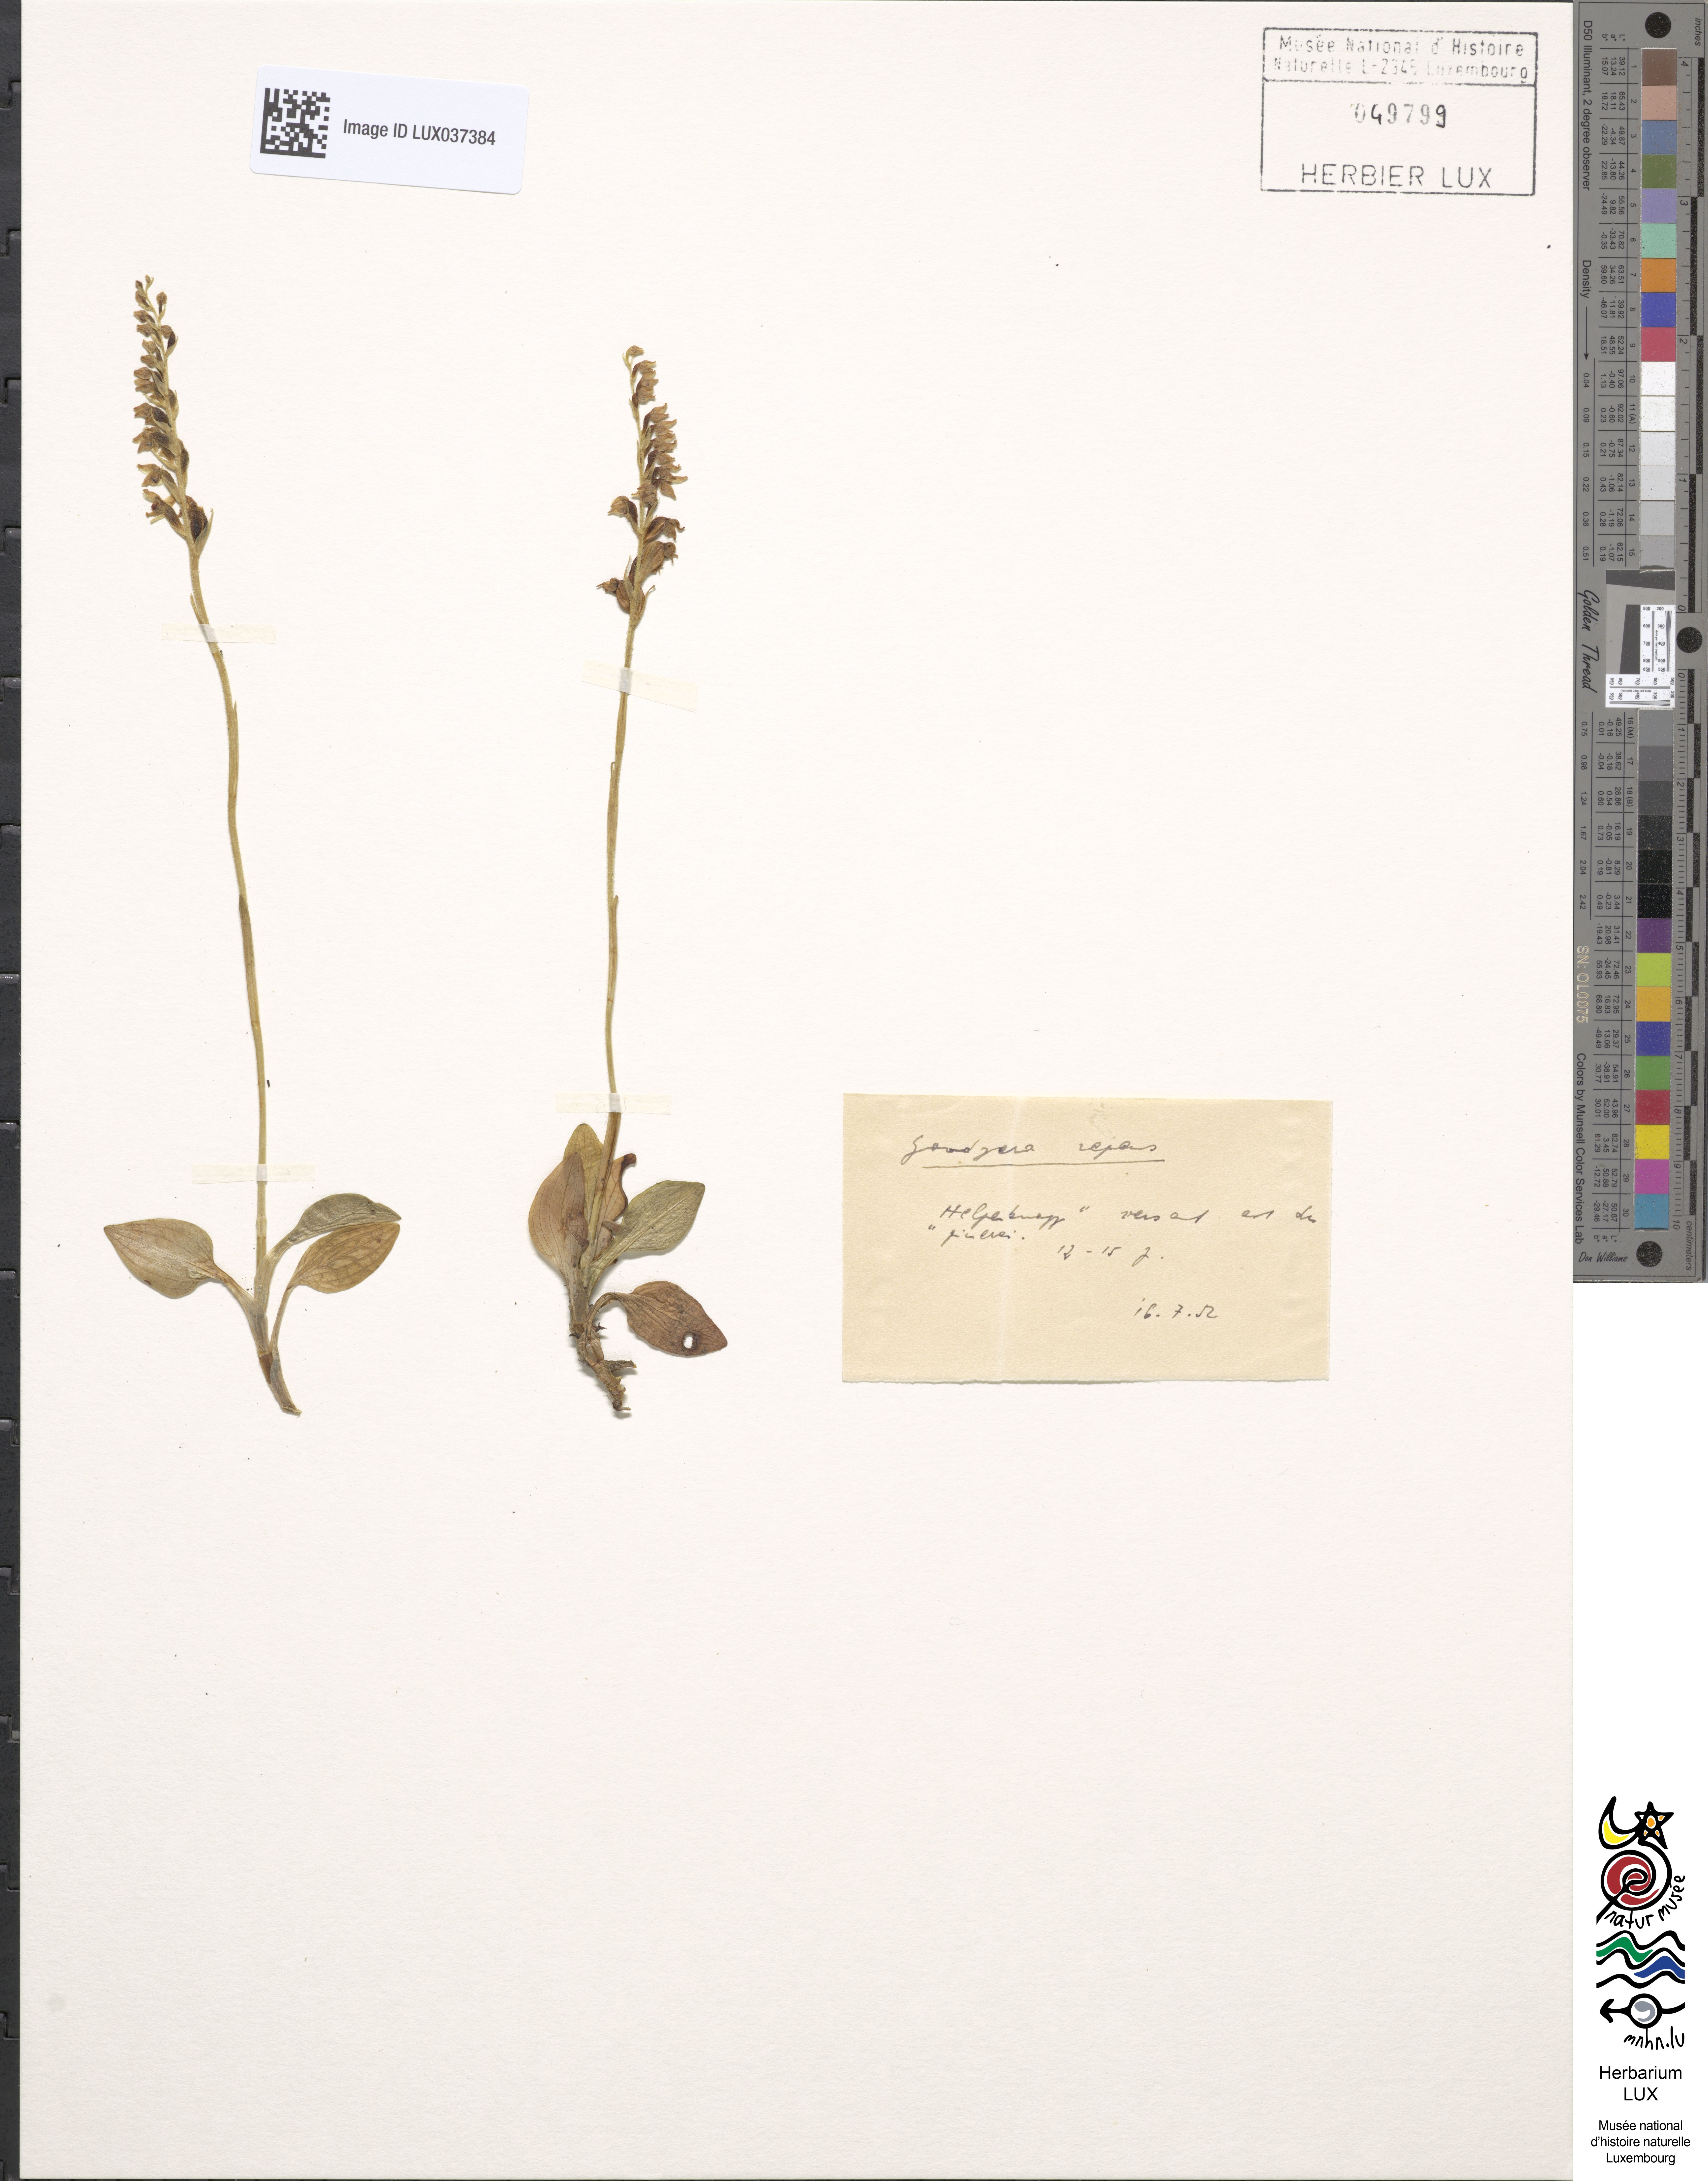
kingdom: Plantae
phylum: Tracheophyta
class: Liliopsida
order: Asparagales
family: Orchidaceae
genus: Goodyera
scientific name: Goodyera repens
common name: Creeping lady's-tresses
